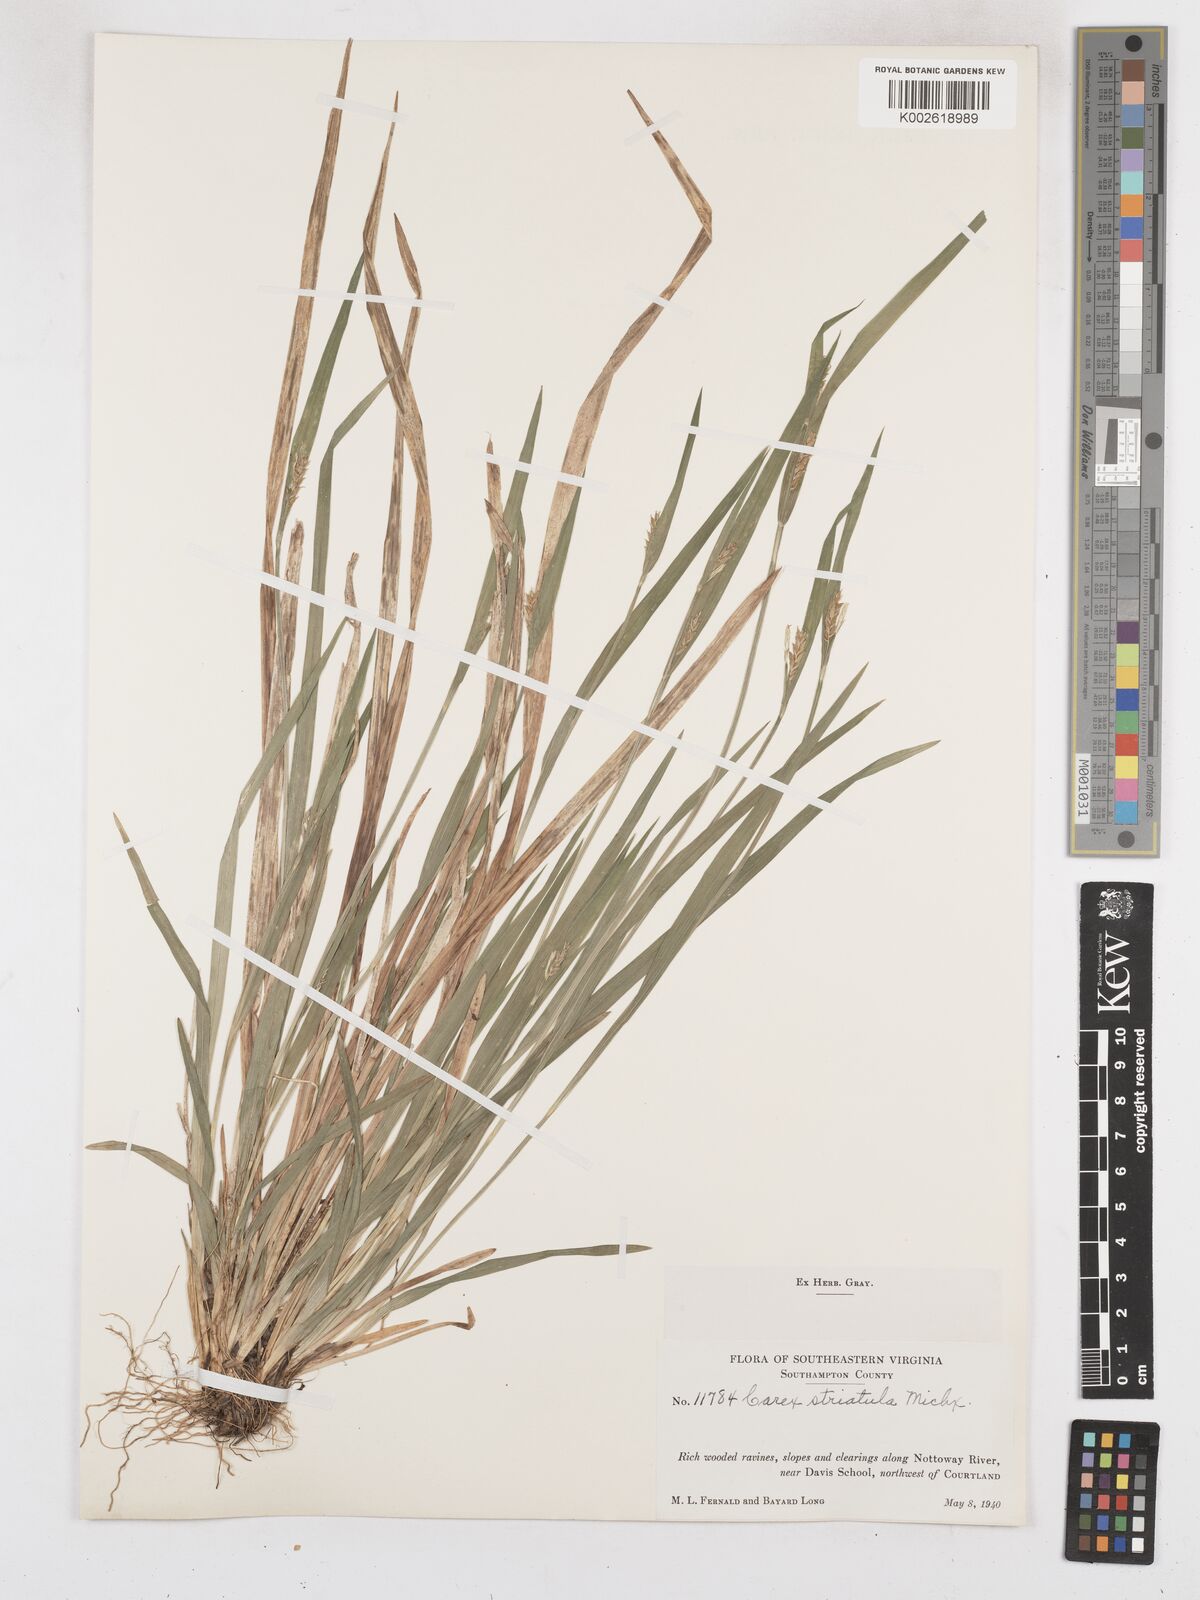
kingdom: Plantae
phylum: Tracheophyta
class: Liliopsida
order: Poales
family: Cyperaceae
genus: Carex
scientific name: Carex striatula
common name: Lined sedge
